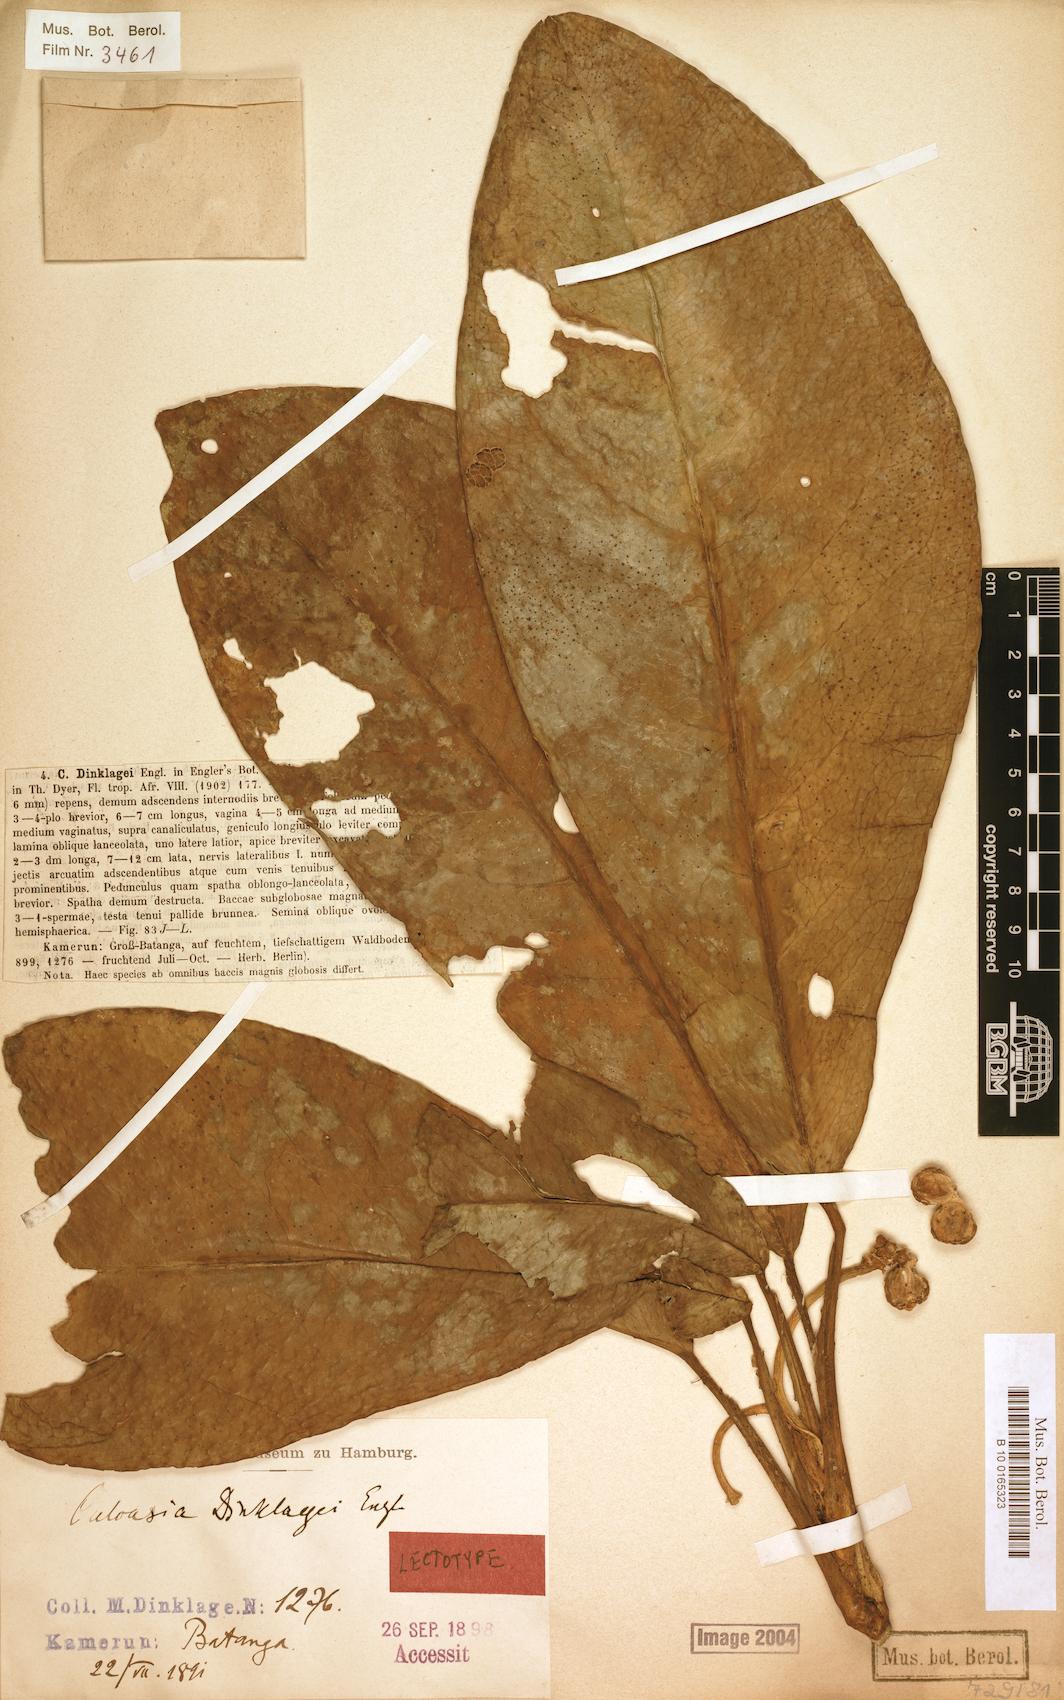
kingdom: Plantae
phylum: Tracheophyta
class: Liliopsida
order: Alismatales
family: Araceae
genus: Culcasia
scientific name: Culcasia dinklagei
